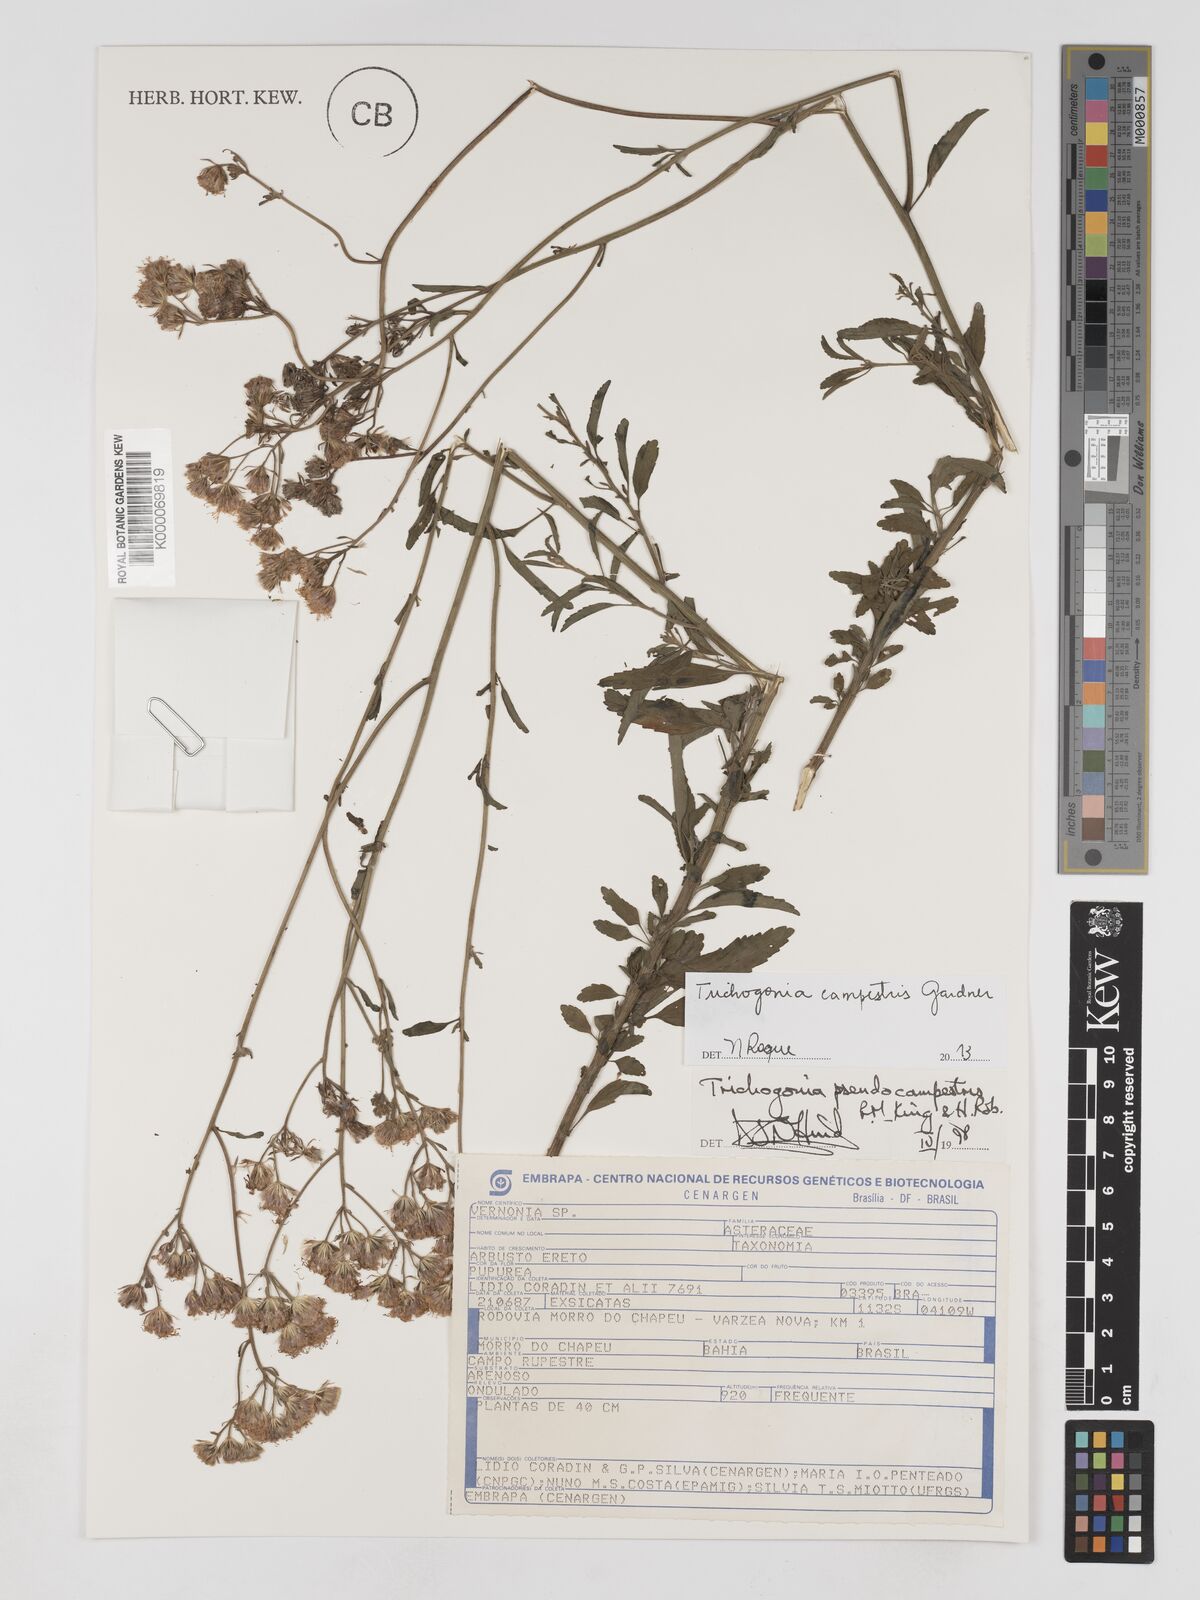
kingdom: Plantae
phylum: Tracheophyta
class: Magnoliopsida
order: Asterales
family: Asteraceae
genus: Trichogonia
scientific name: Trichogonia campestris
